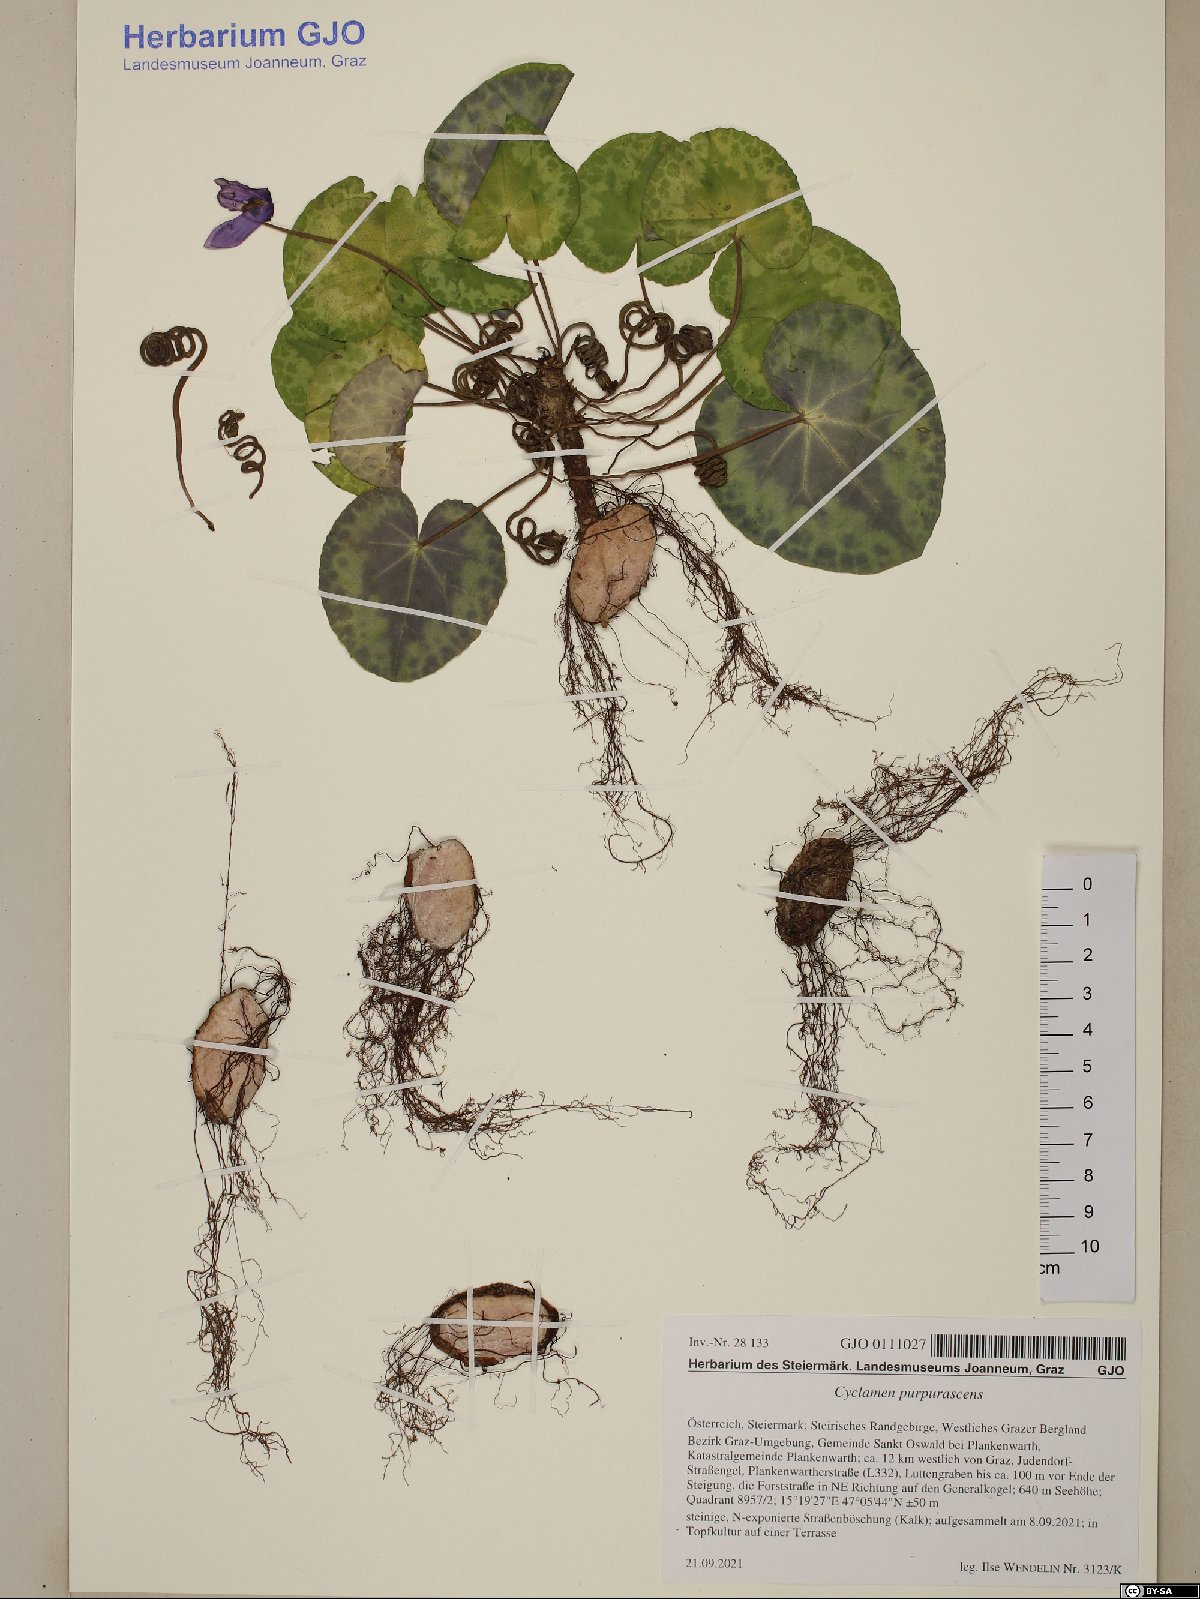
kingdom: Plantae
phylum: Tracheophyta
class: Magnoliopsida
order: Ericales
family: Primulaceae
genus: Cyclamen
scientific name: Cyclamen purpurascens
